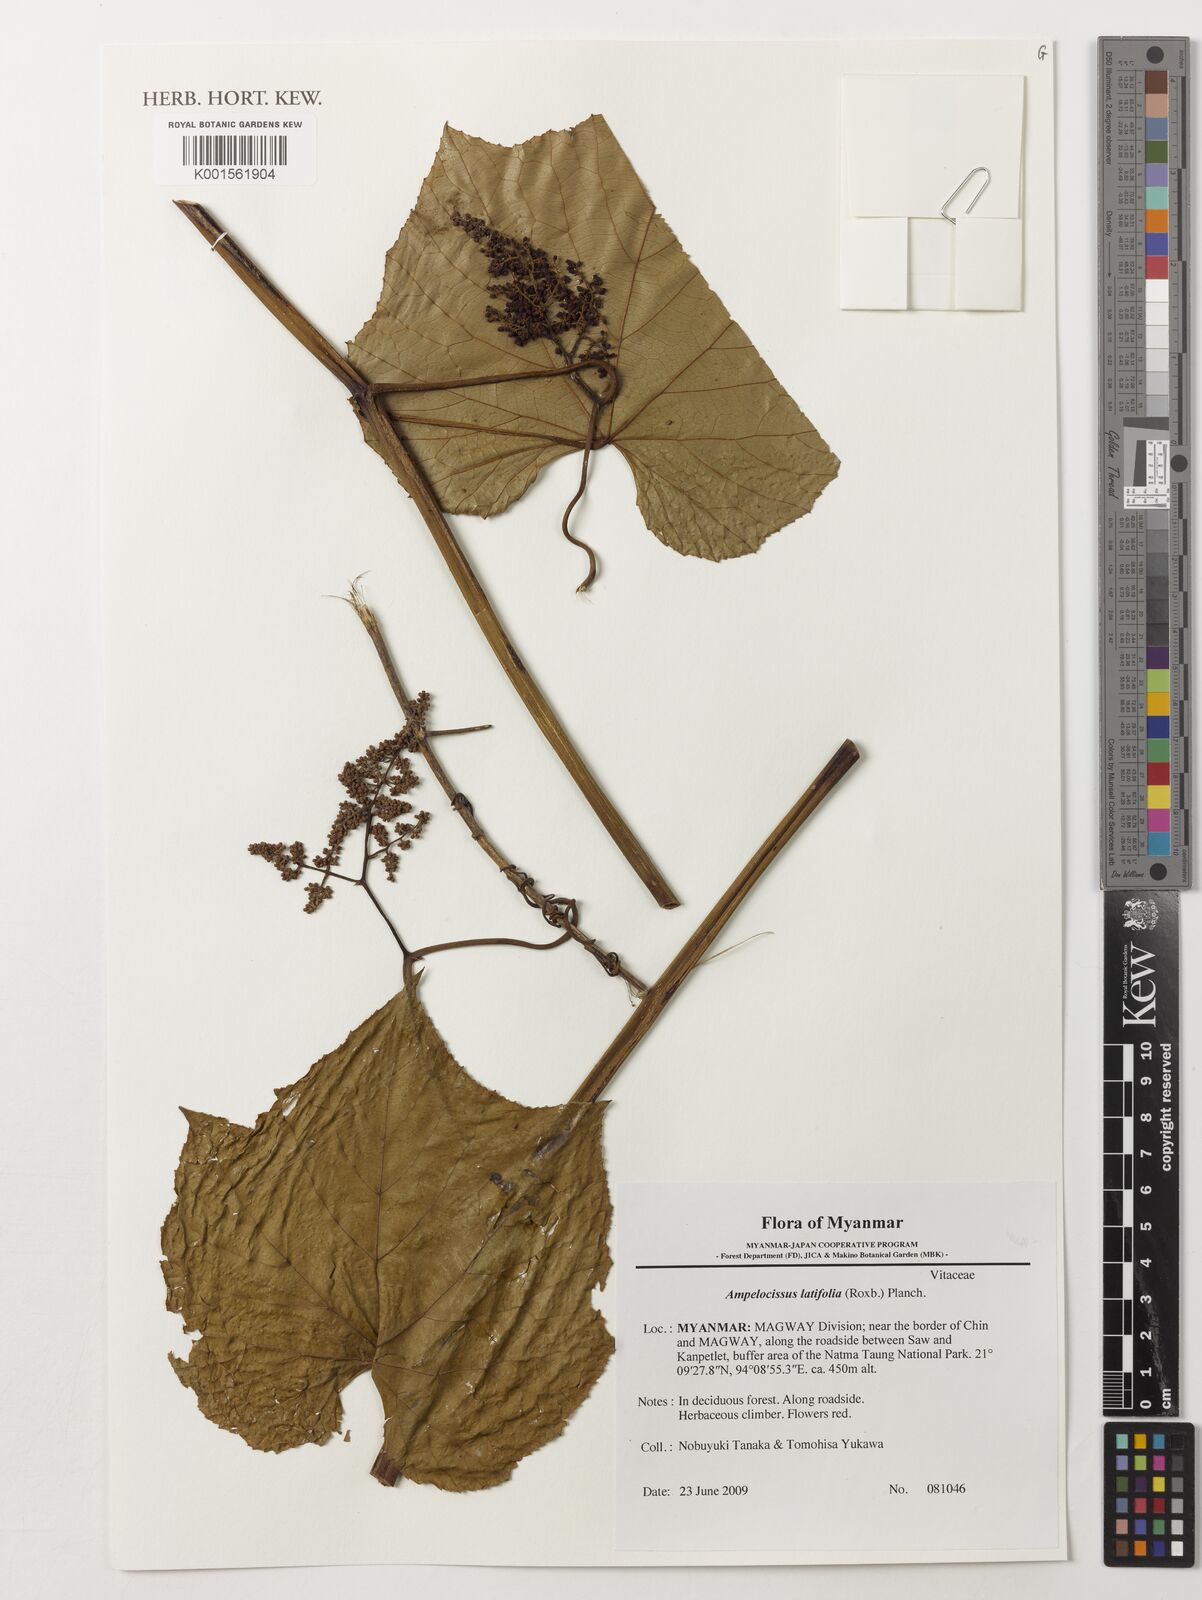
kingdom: Plantae
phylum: Tracheophyta
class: Magnoliopsida
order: Vitales
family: Vitaceae
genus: Ampelocissus
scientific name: Ampelocissus latifolia
